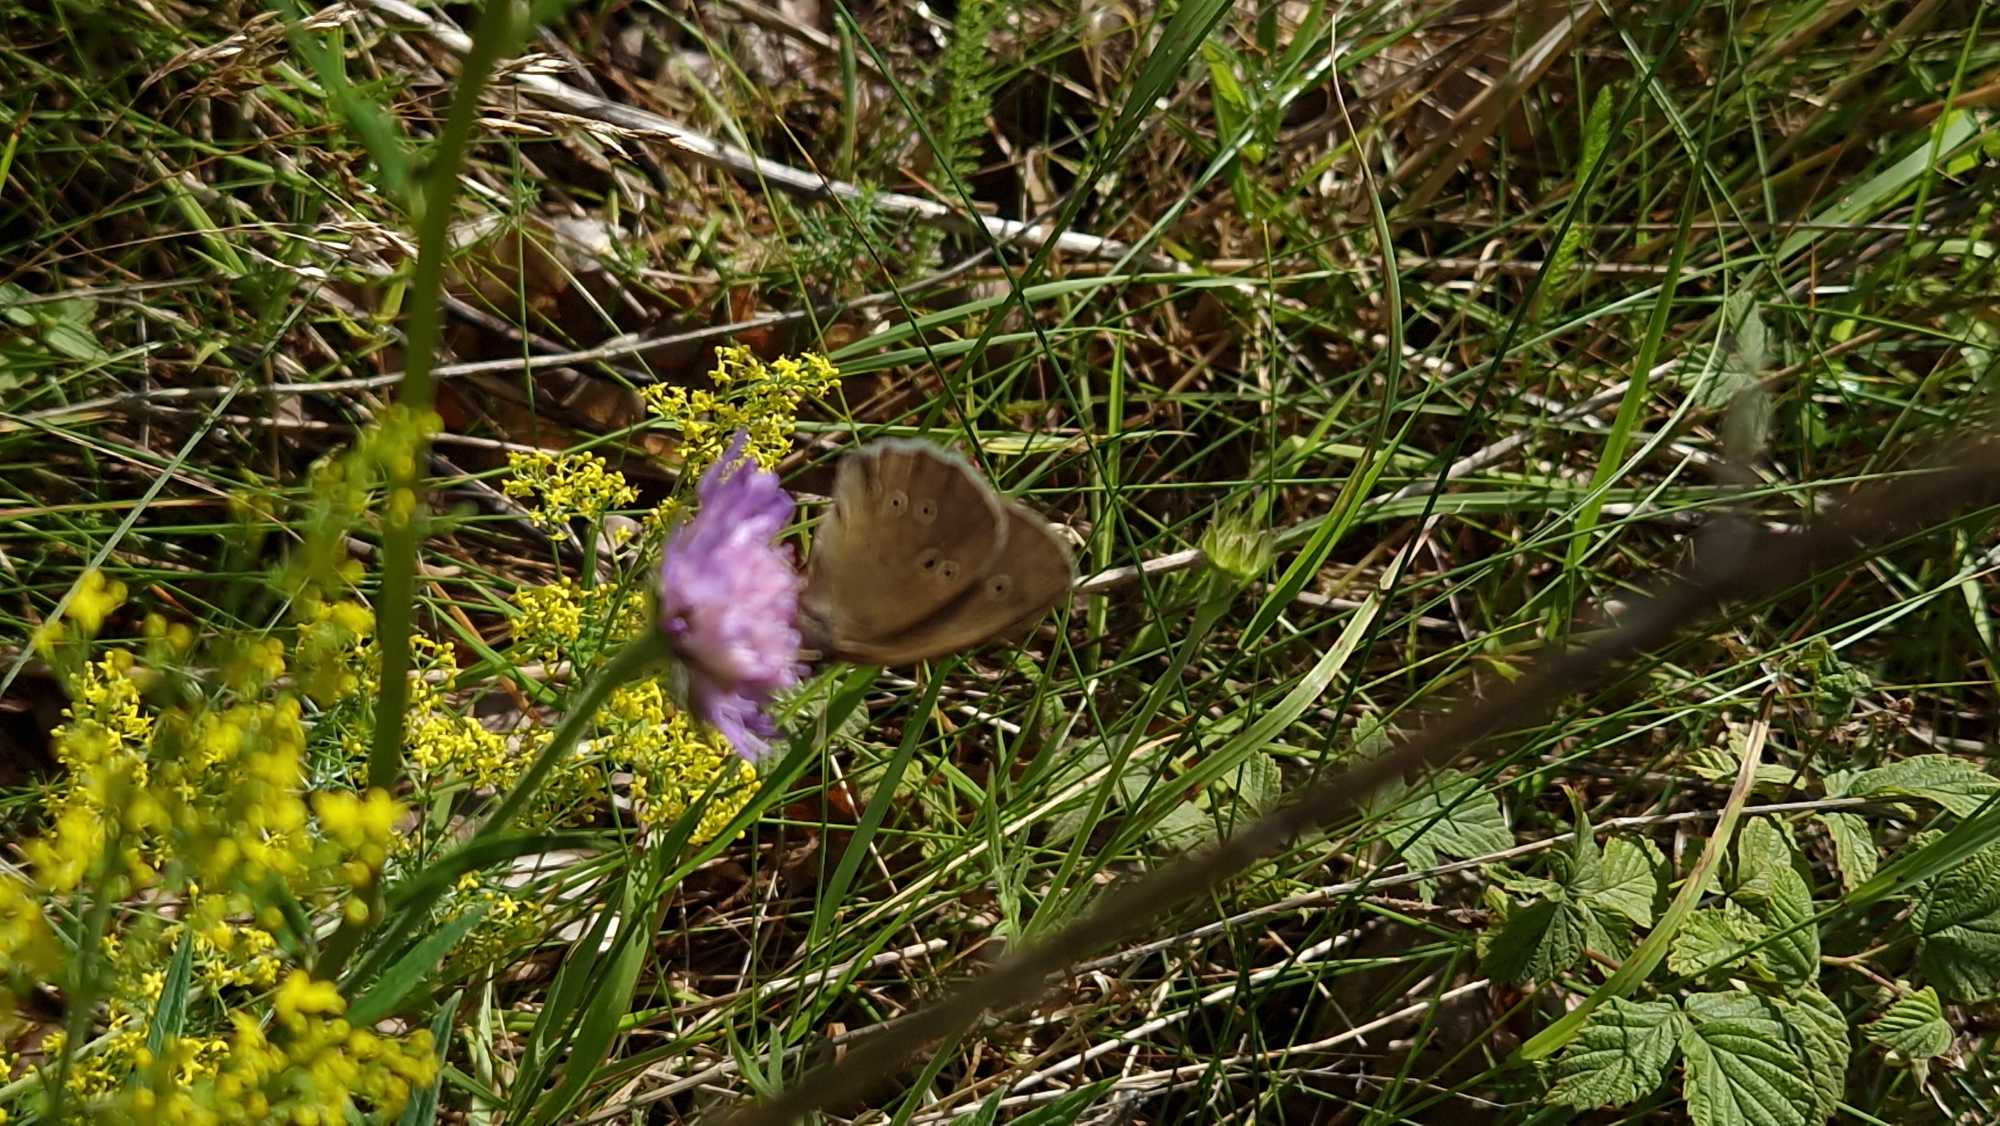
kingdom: Animalia
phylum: Arthropoda
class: Insecta
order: Lepidoptera
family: Nymphalidae
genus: Aphantopus
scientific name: Aphantopus hyperantus
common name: Engrandøje
